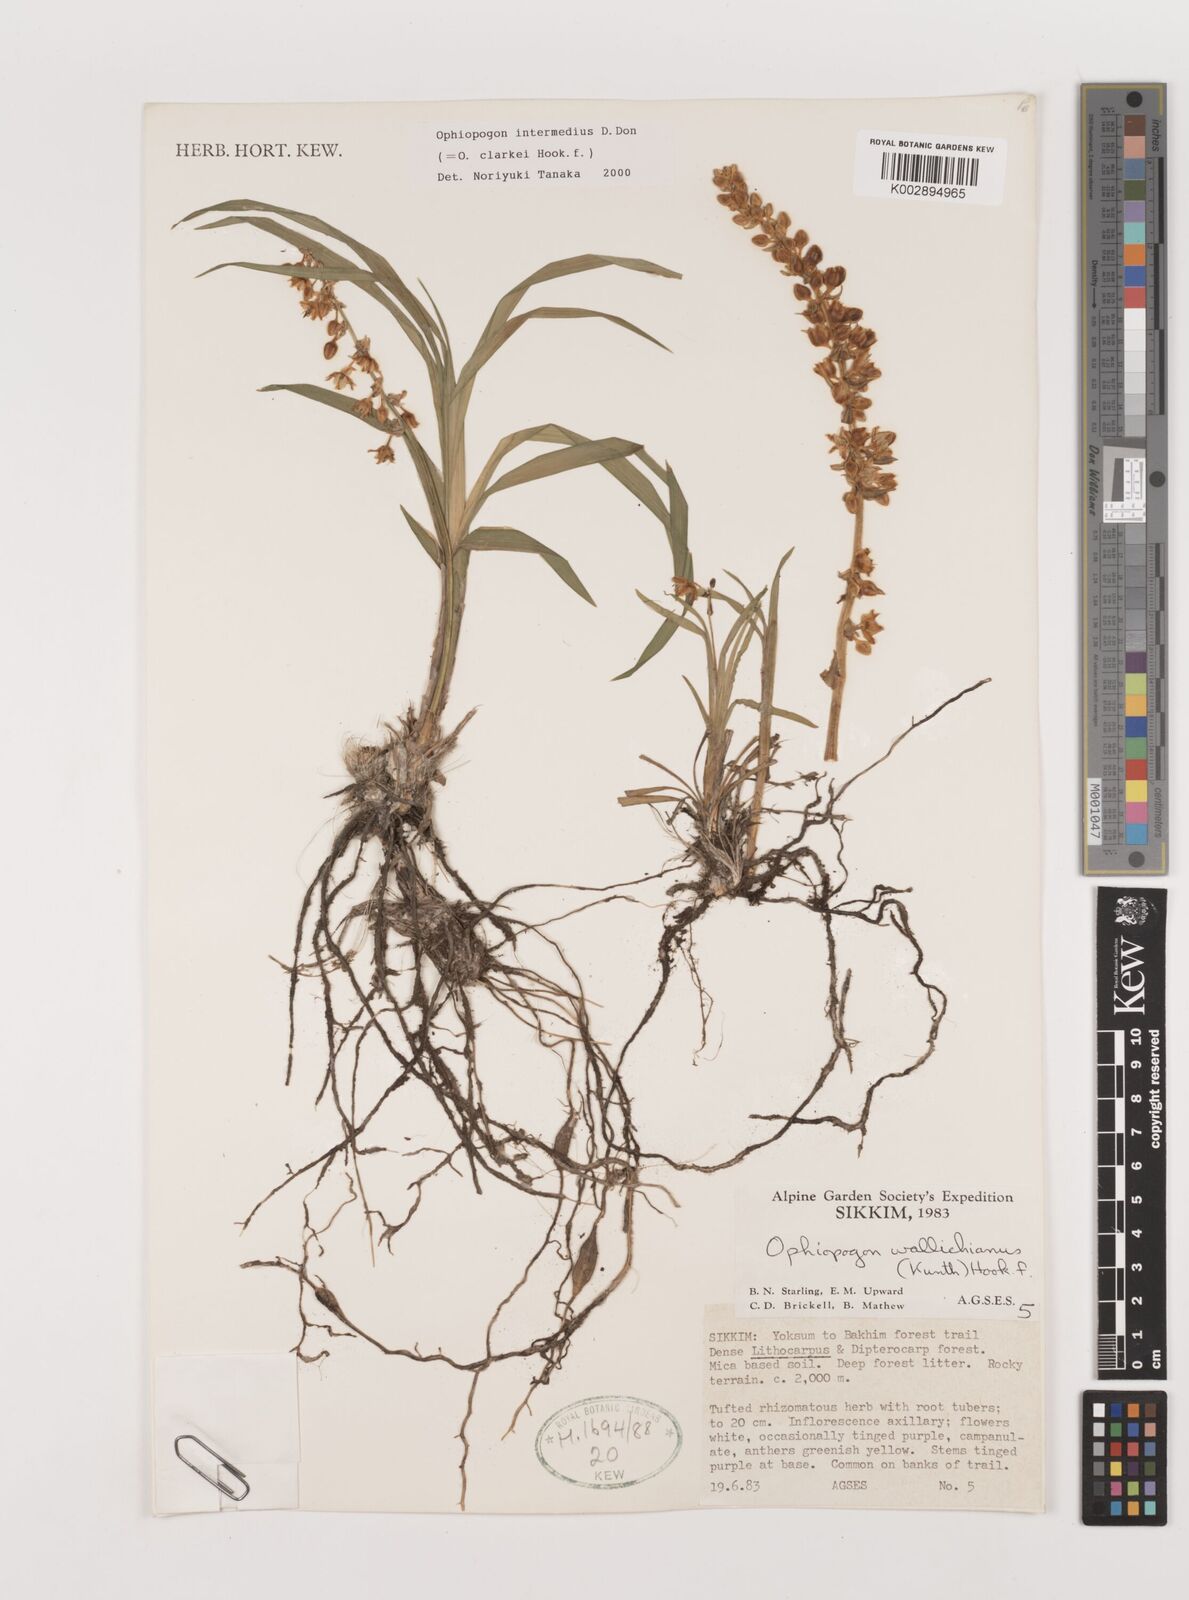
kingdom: Plantae
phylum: Tracheophyta
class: Liliopsida
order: Asparagales
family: Asparagaceae
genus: Ophiopogon
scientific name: Ophiopogon intermedius
